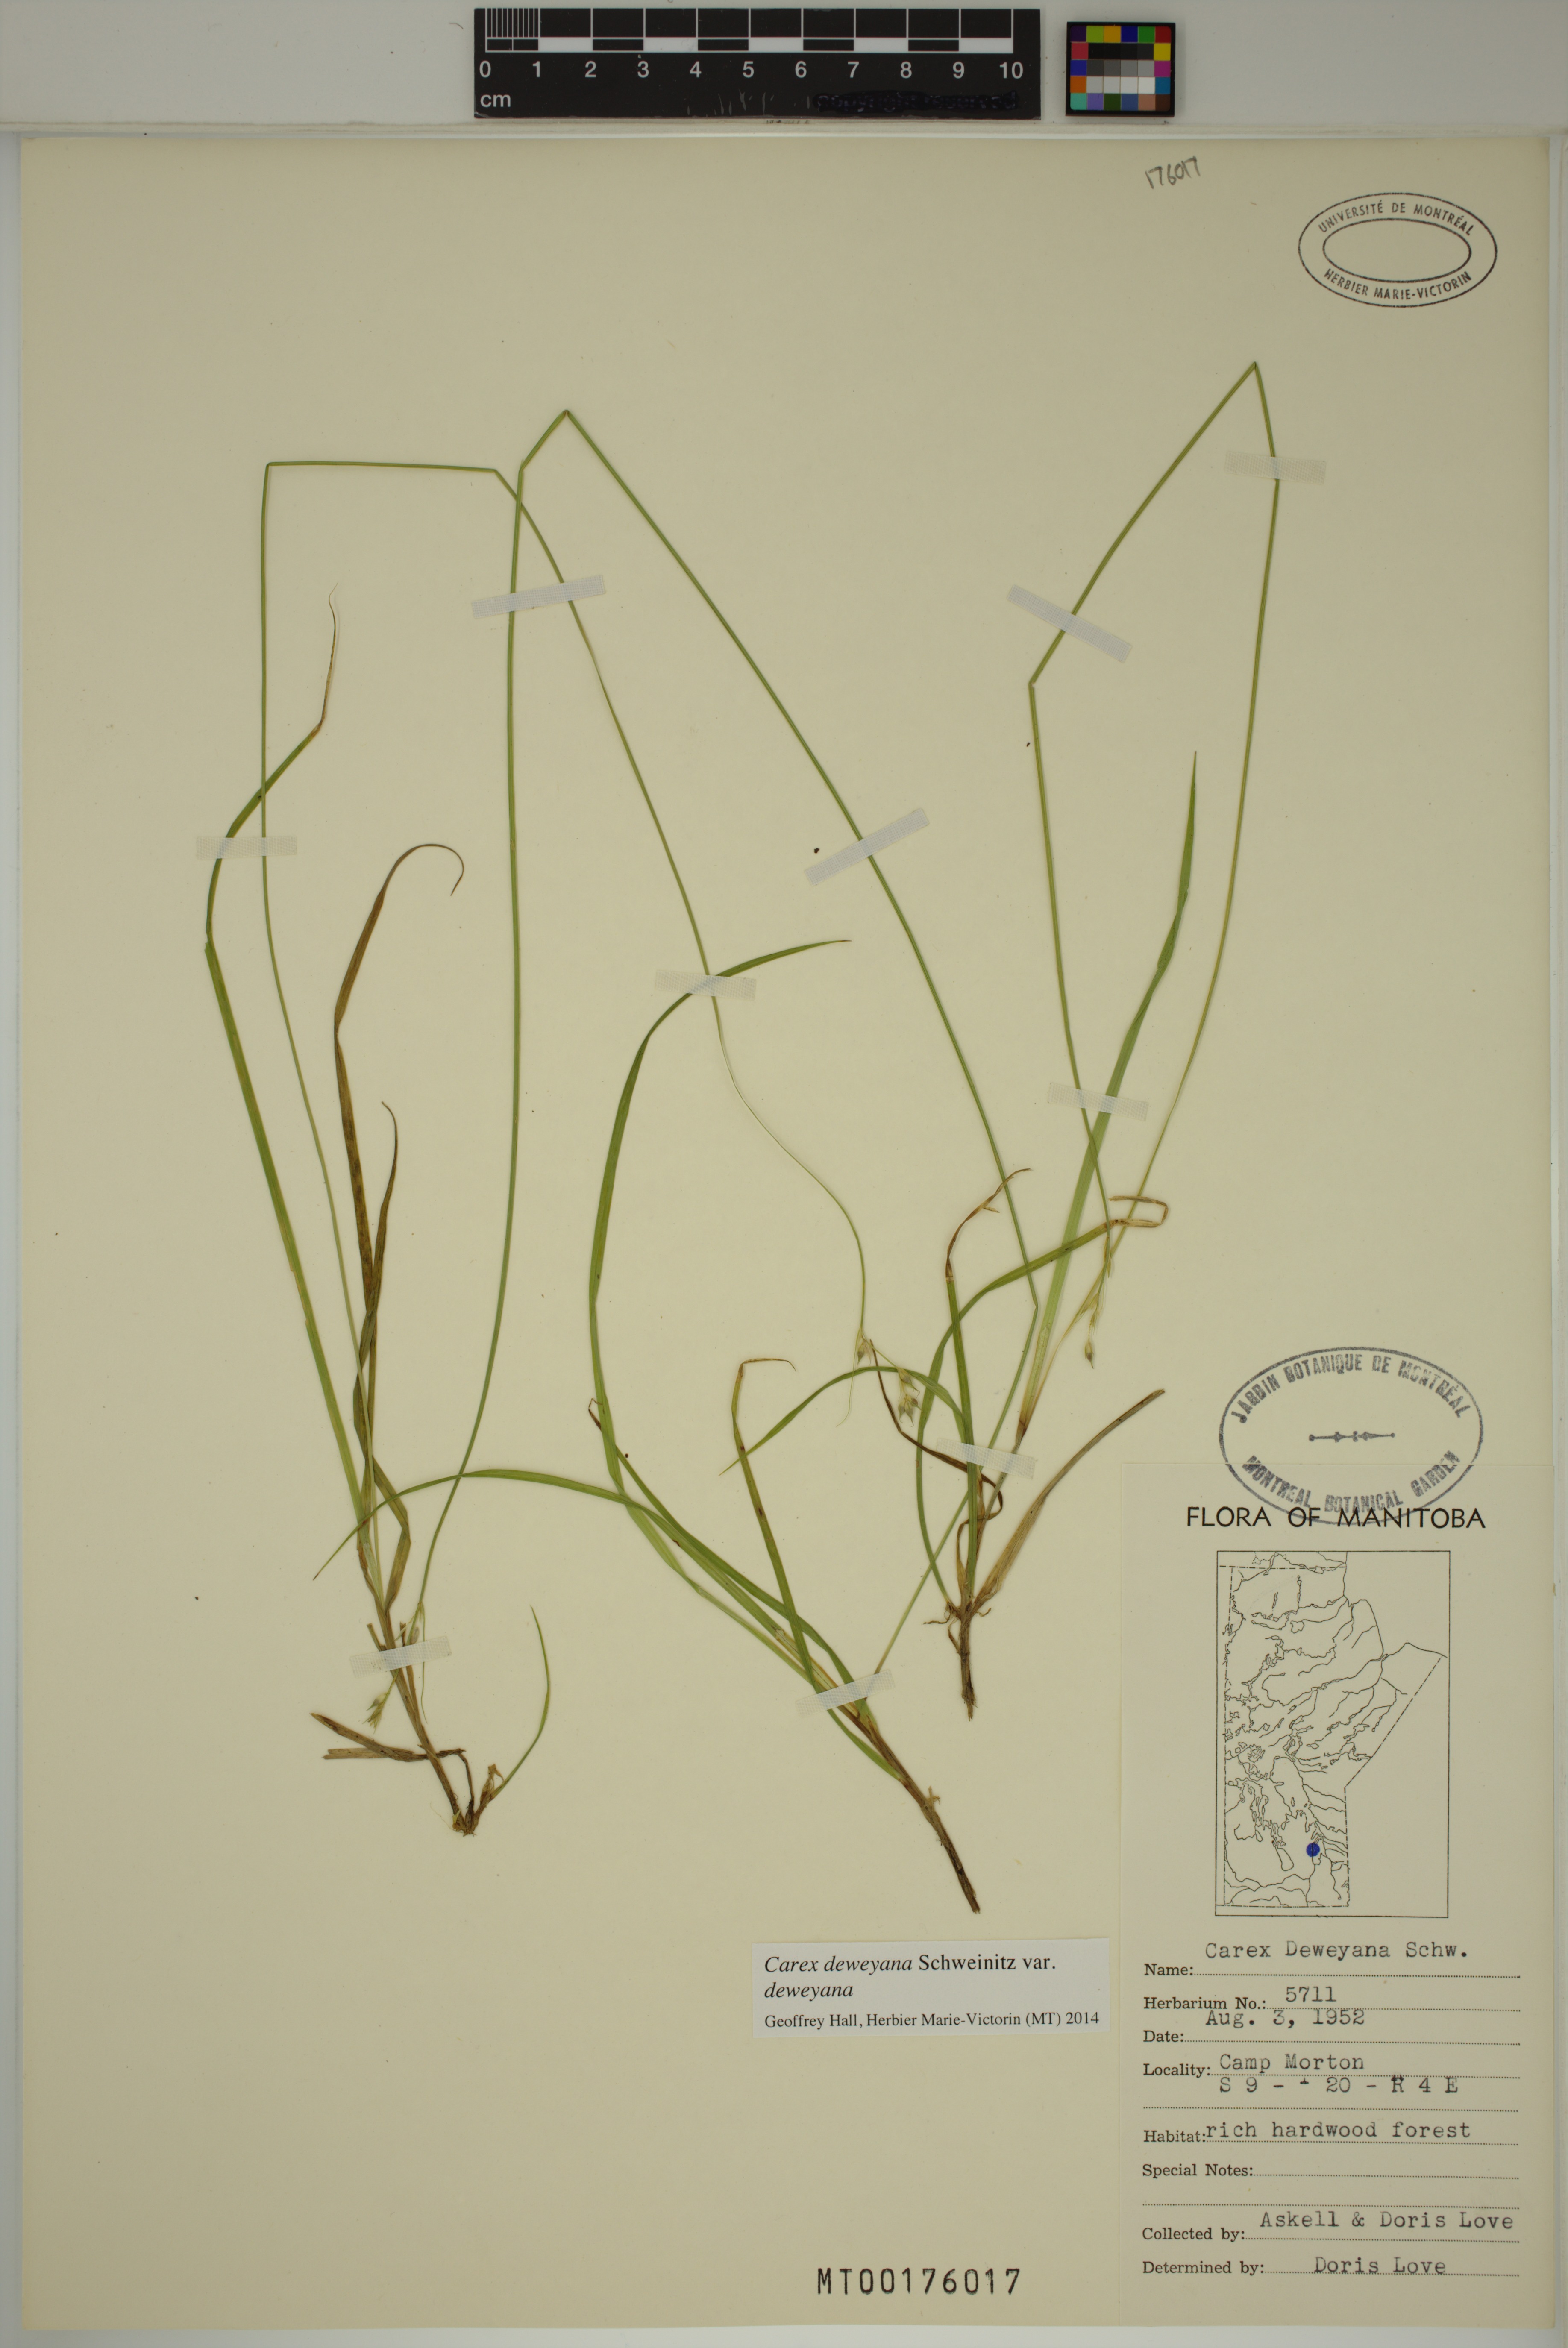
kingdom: Plantae
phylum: Tracheophyta
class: Liliopsida
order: Poales
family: Cyperaceae
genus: Carex
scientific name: Carex deweyana
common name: Dewey's sedge
